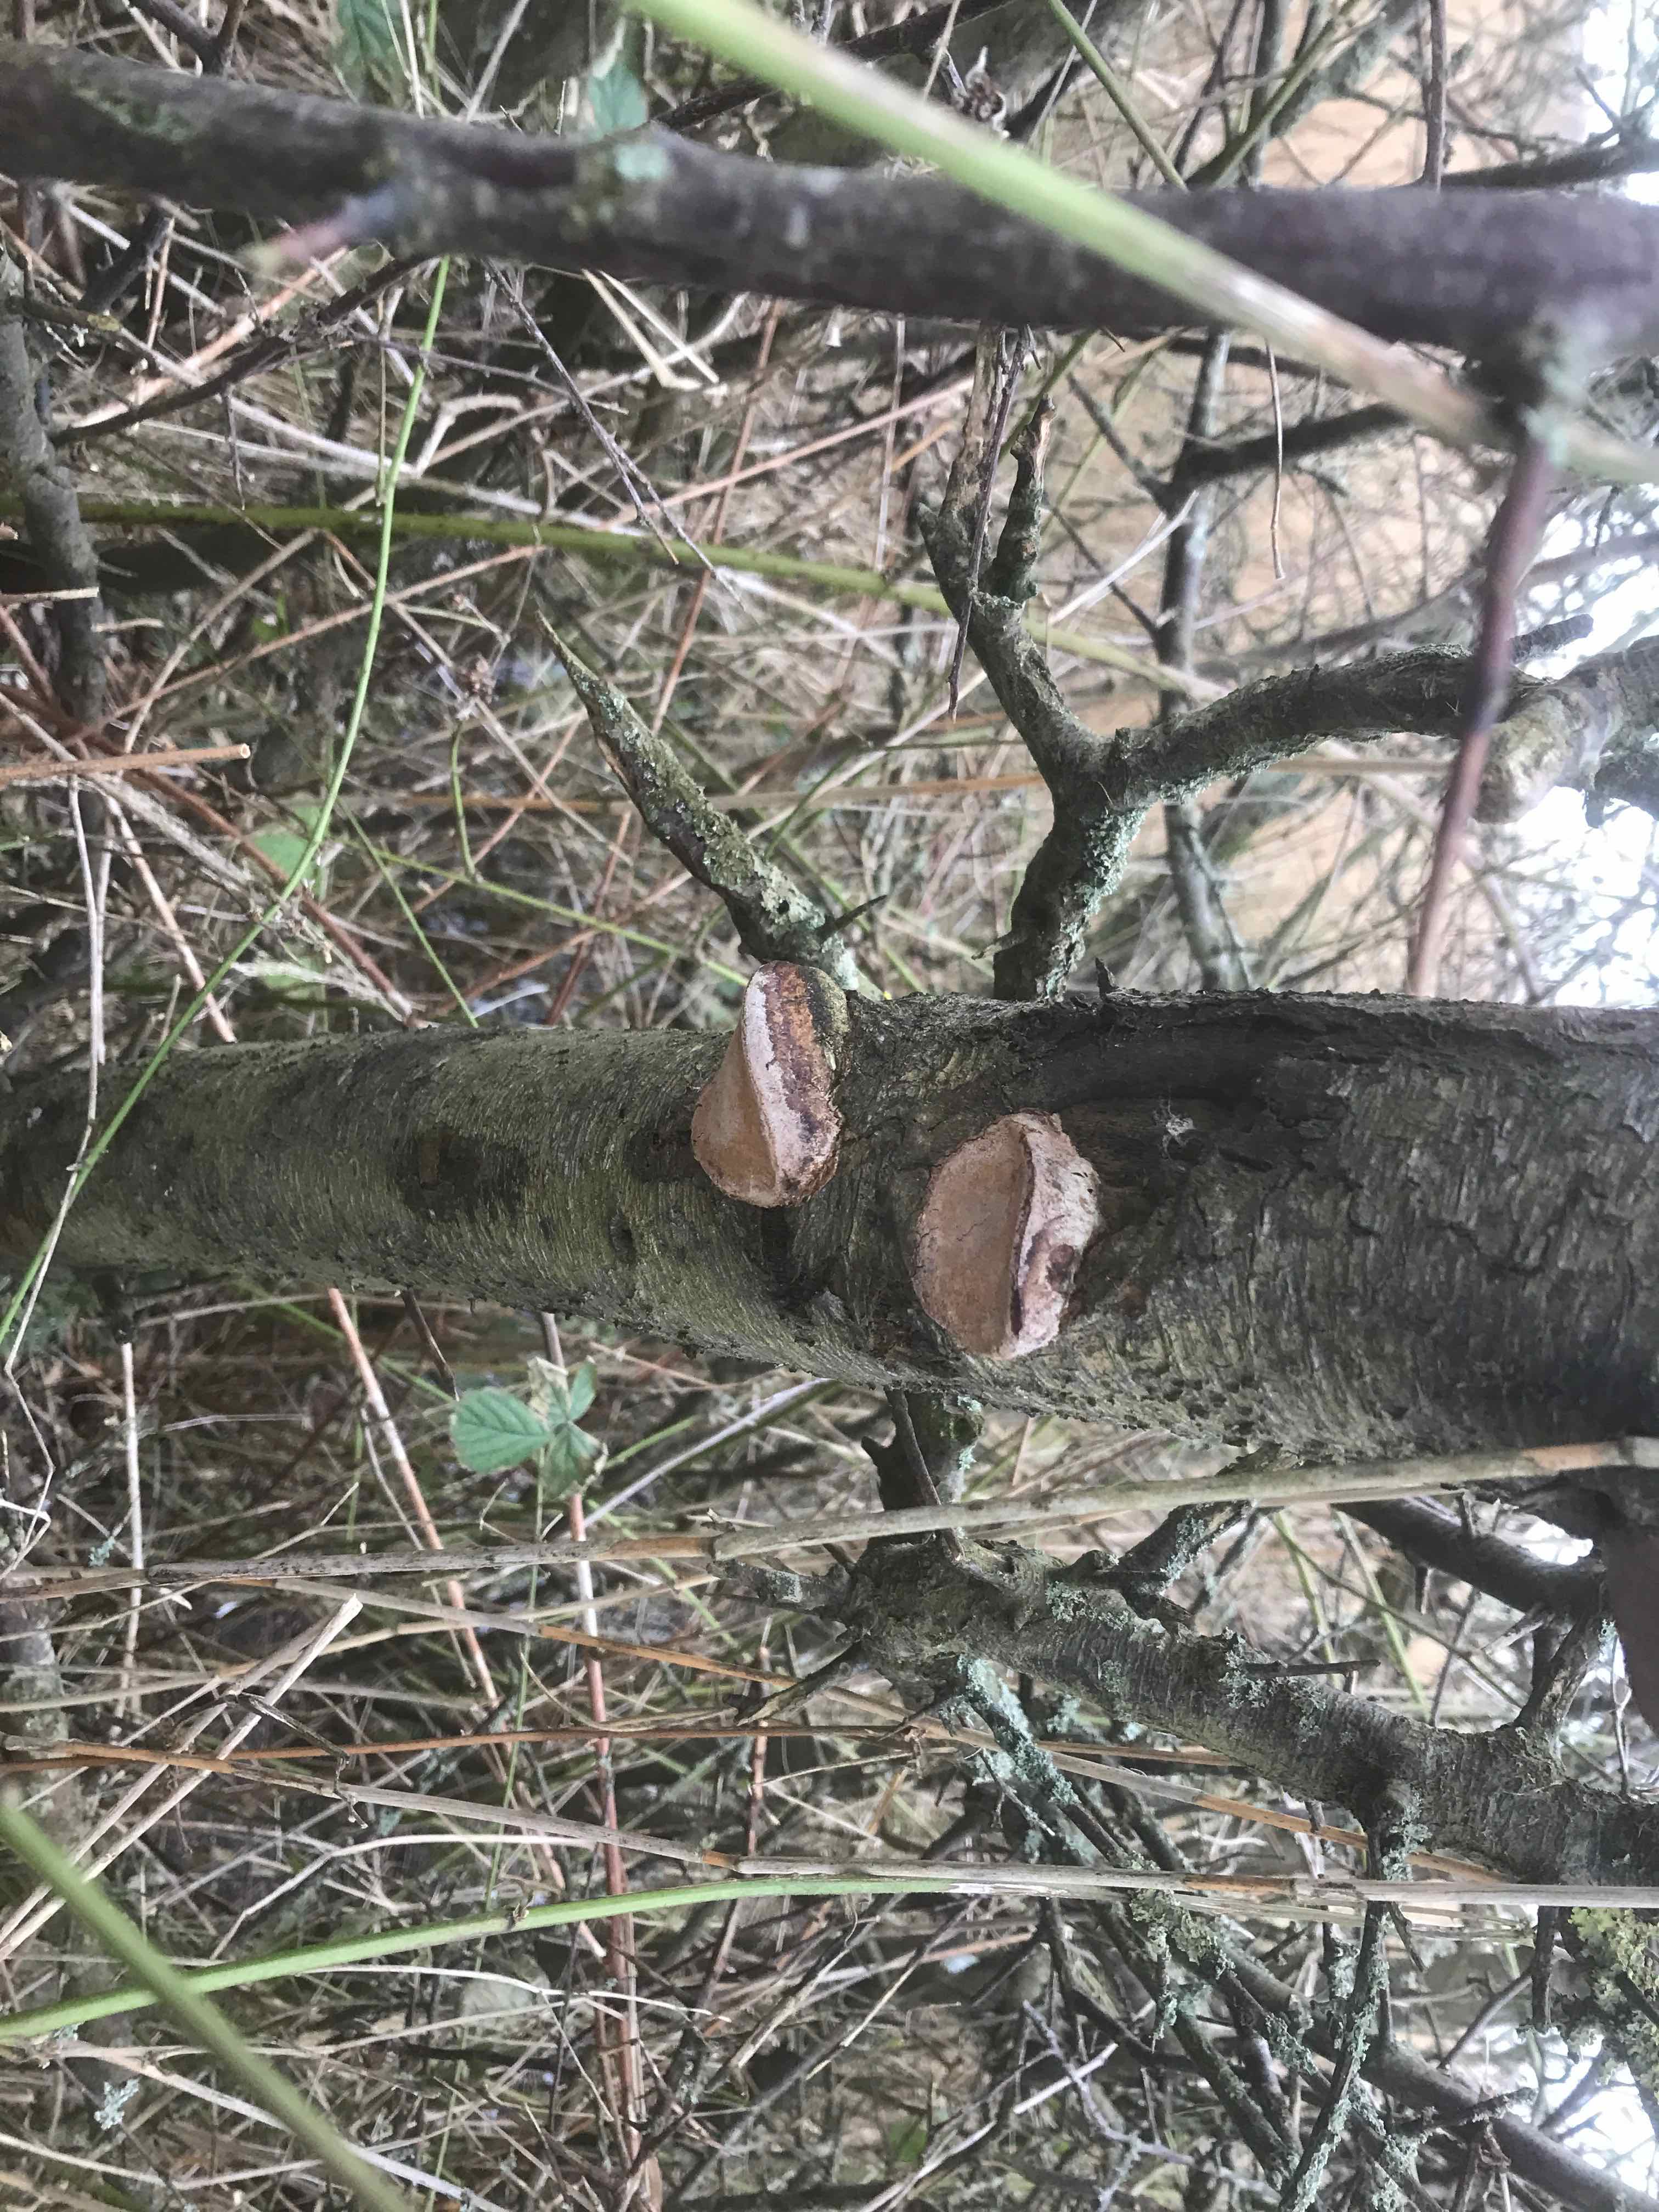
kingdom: Fungi
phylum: Basidiomycota
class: Agaricomycetes
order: Hymenochaetales
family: Hymenochaetaceae
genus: Phellinus
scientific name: Phellinus pomaceus
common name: blomme-ildporesvamp
